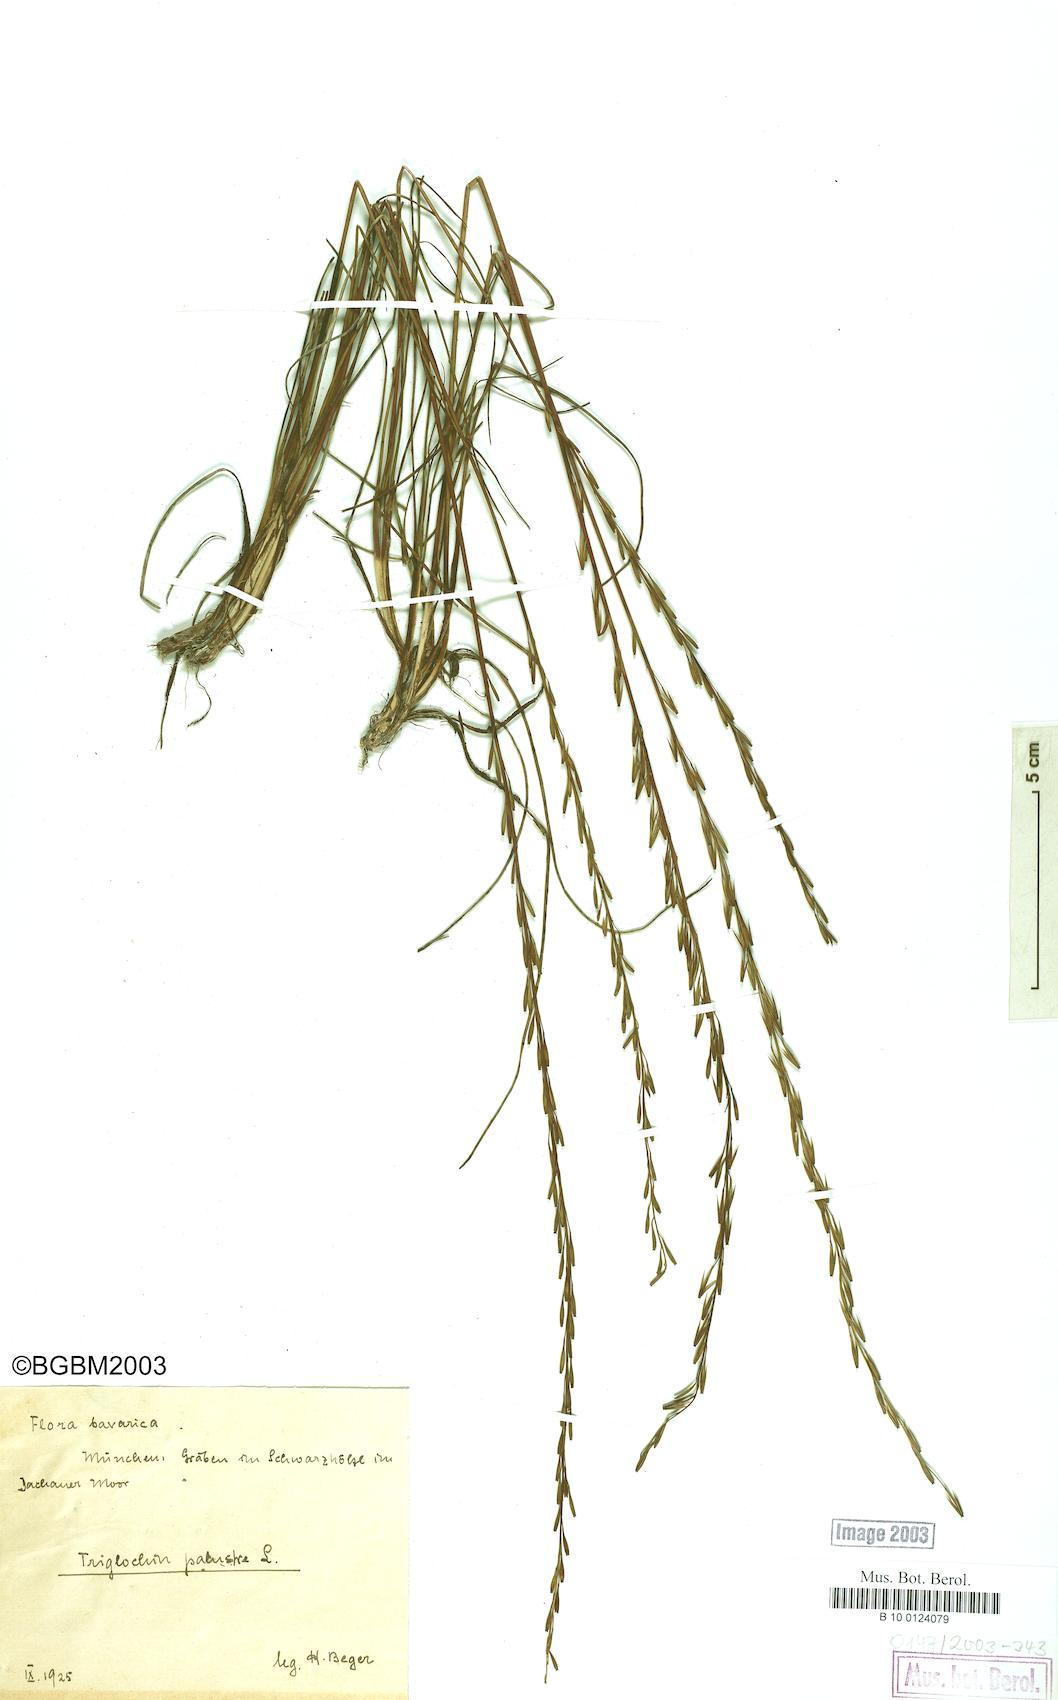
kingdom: Plantae
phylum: Tracheophyta
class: Liliopsida
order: Alismatales
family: Juncaginaceae
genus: Triglochin
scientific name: Triglochin palustris
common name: Marsh arrowgrass
